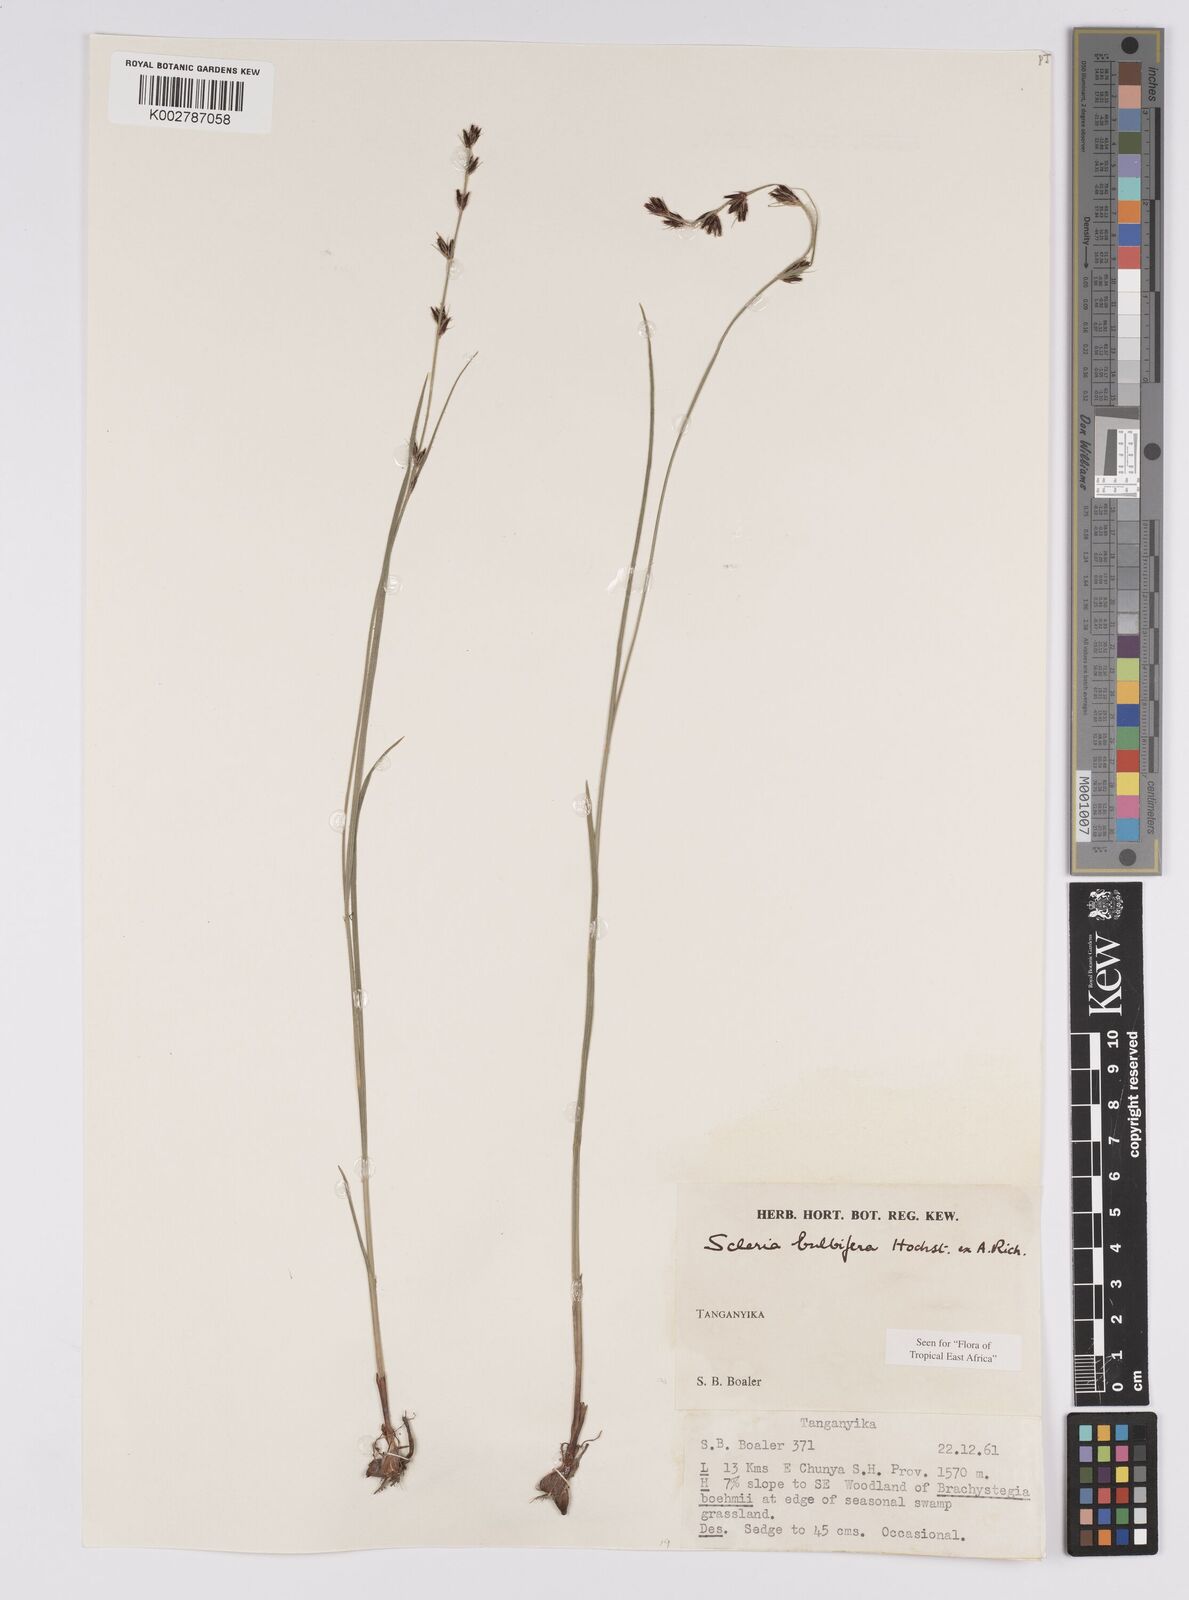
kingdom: Plantae
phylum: Tracheophyta
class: Liliopsida
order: Poales
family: Cyperaceae
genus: Scleria
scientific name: Scleria bulbifera
